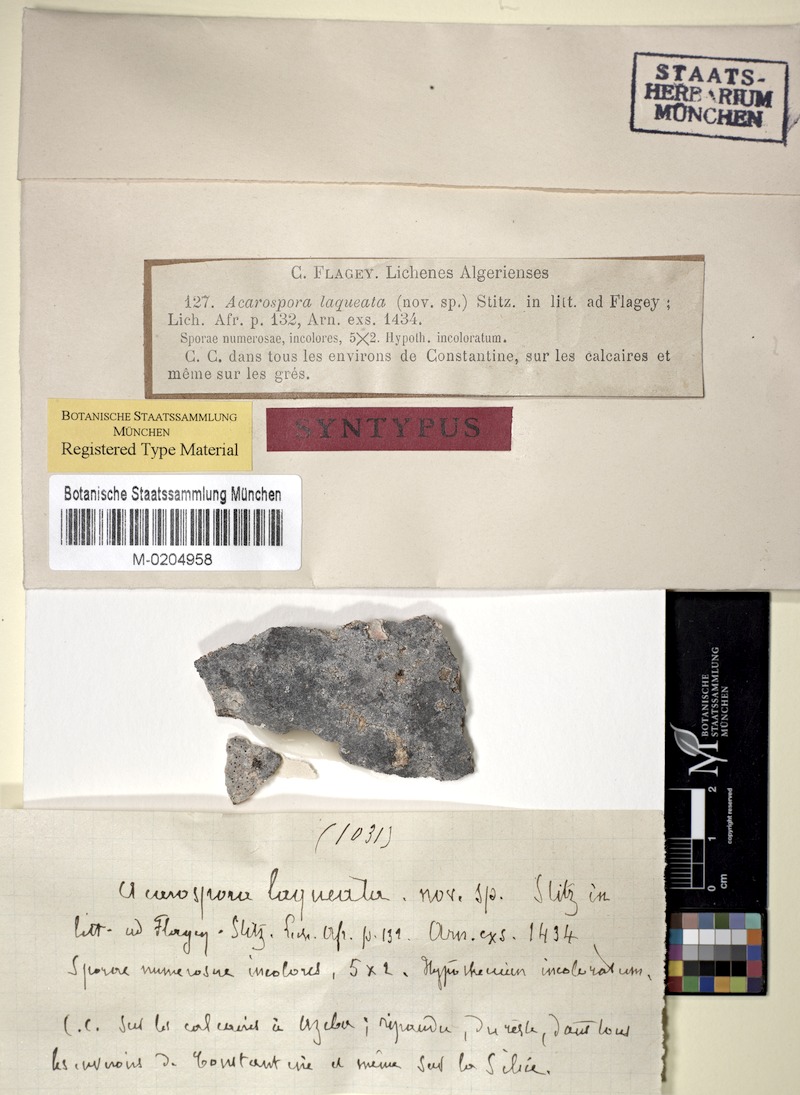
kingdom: Fungi
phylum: Ascomycota
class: Lecanoromycetes
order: Acarosporales
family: Acarosporaceae
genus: Acarospora
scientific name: Acarospora laqueata
